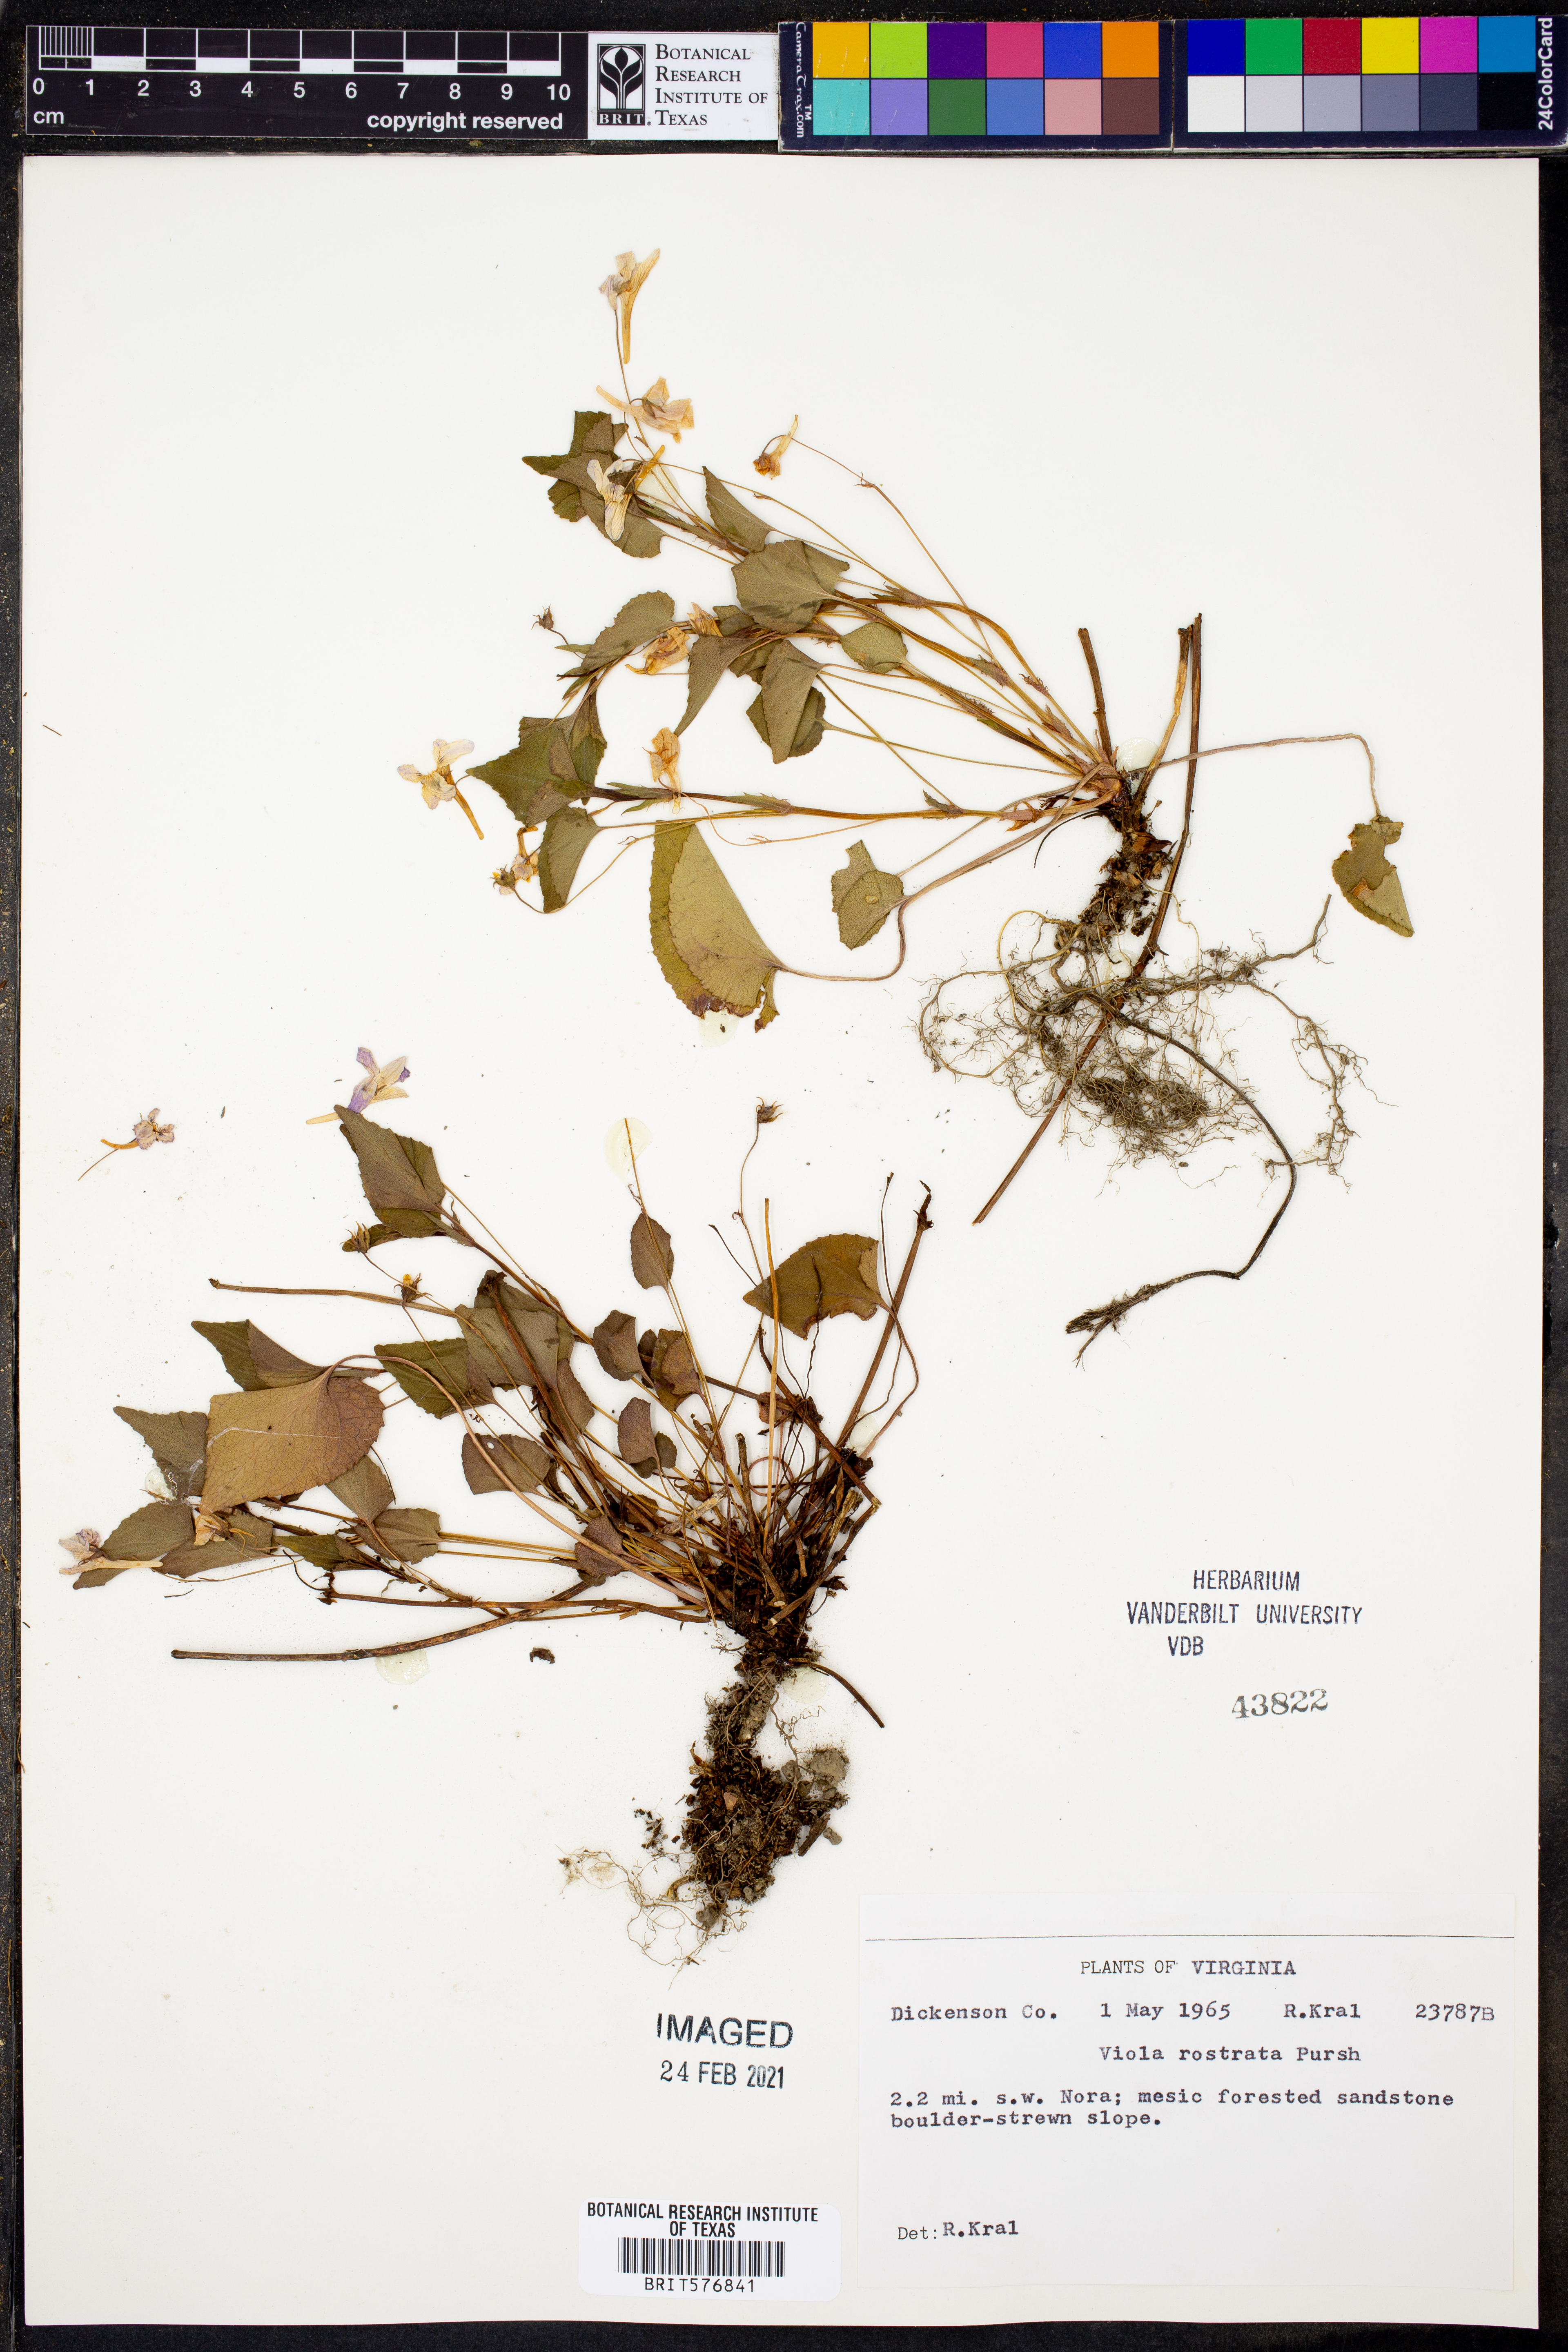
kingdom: Plantae
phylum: Tracheophyta
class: Magnoliopsida
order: Malpighiales
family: Violaceae
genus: Viola
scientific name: Viola rostrata
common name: Long-spur violet
